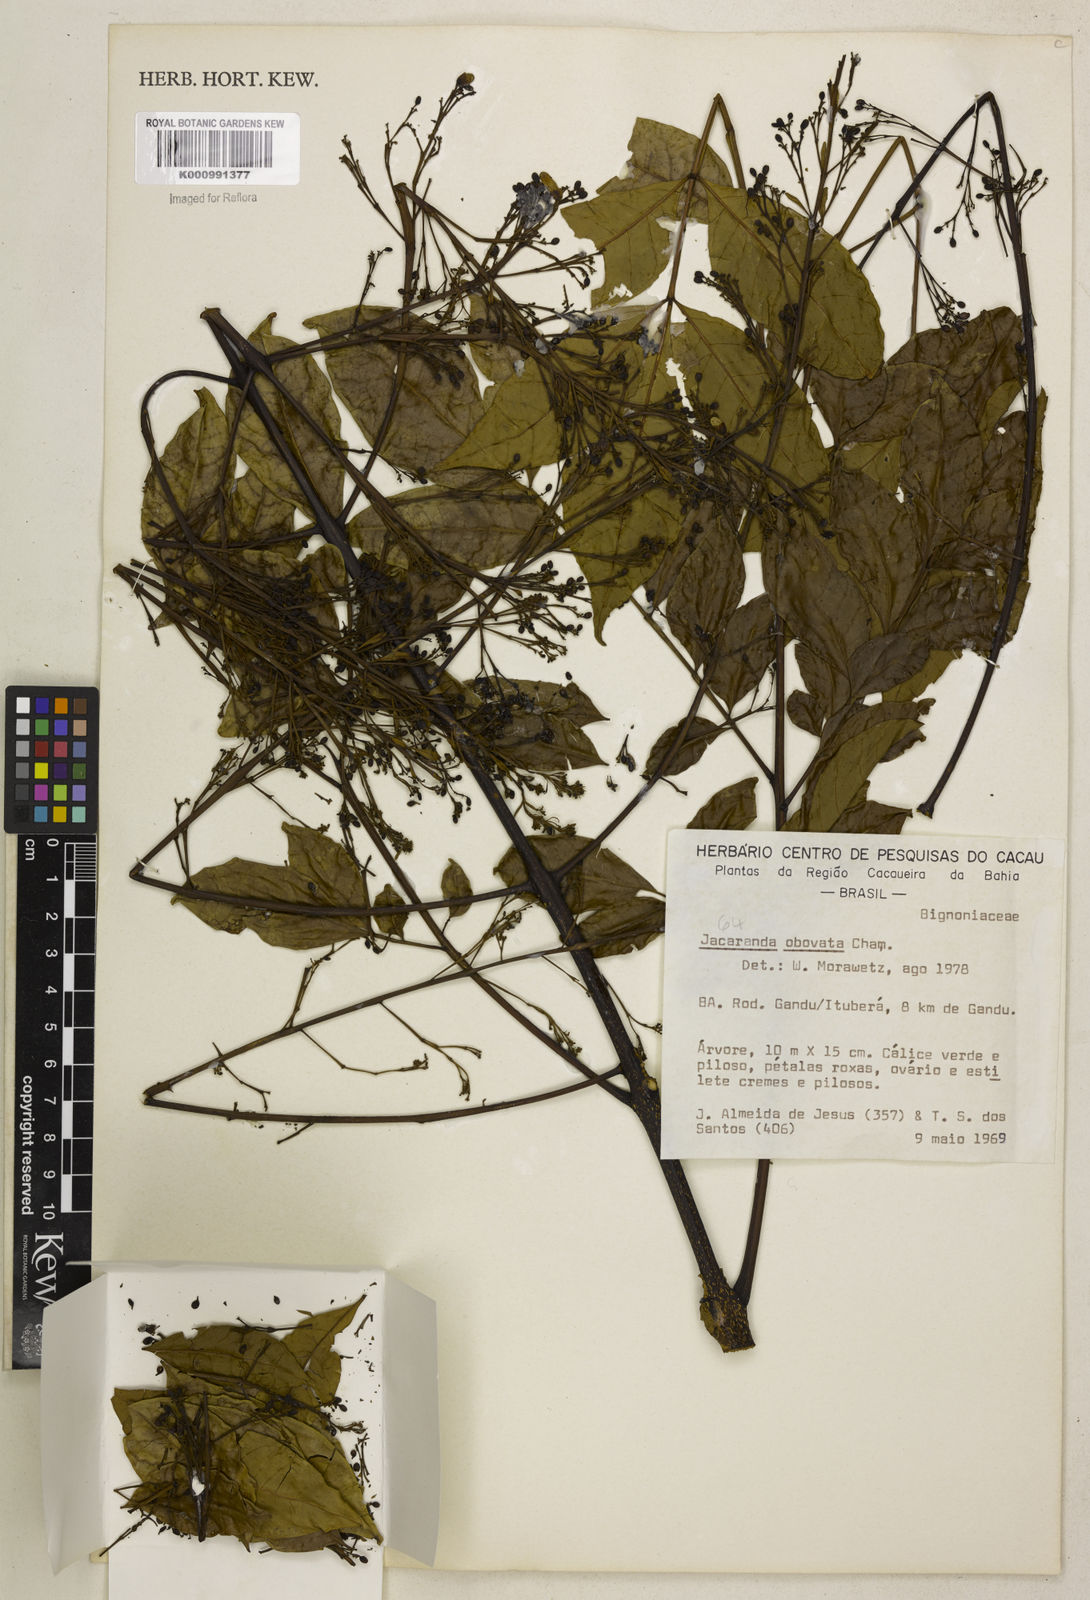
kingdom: Plantae
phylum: Tracheophyta
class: Magnoliopsida
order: Lamiales
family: Bignoniaceae
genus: Jacaranda
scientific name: Jacaranda obovata
